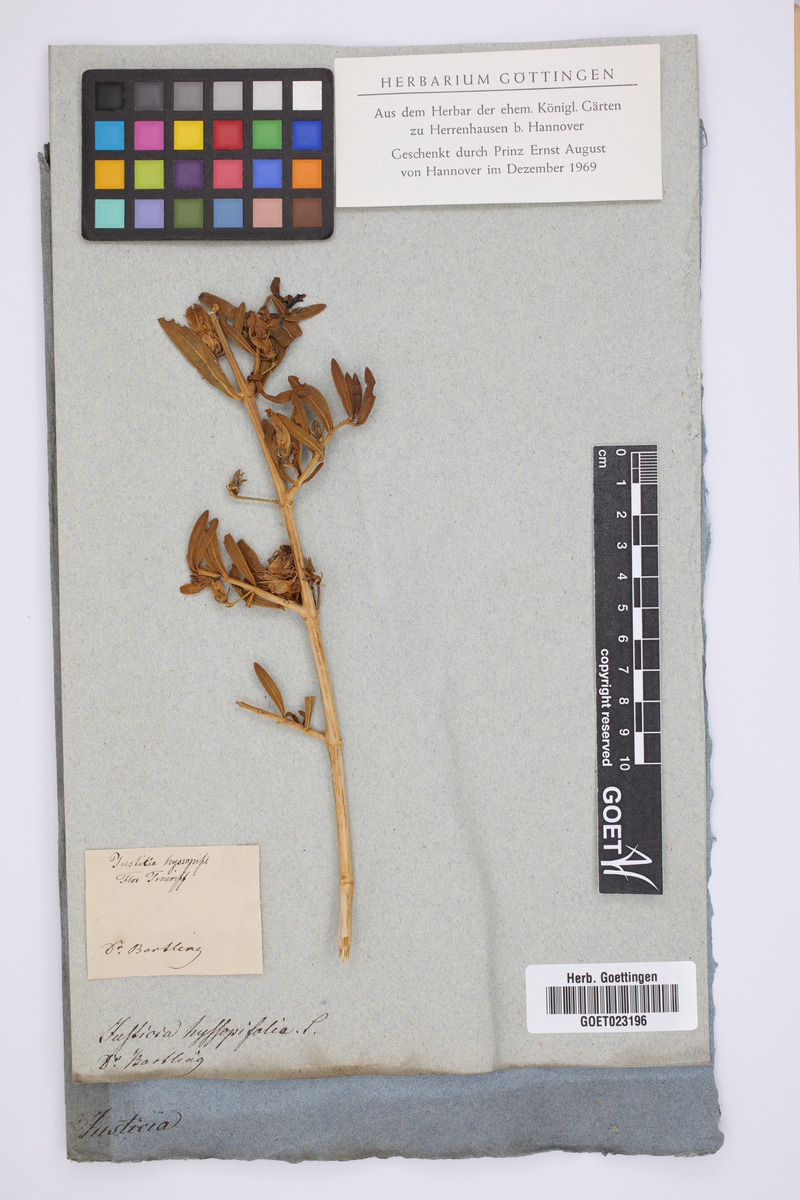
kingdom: Plantae
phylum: Tracheophyta
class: Magnoliopsida
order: Lamiales
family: Acanthaceae
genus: Justicia
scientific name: Justicia hyssopifolia
